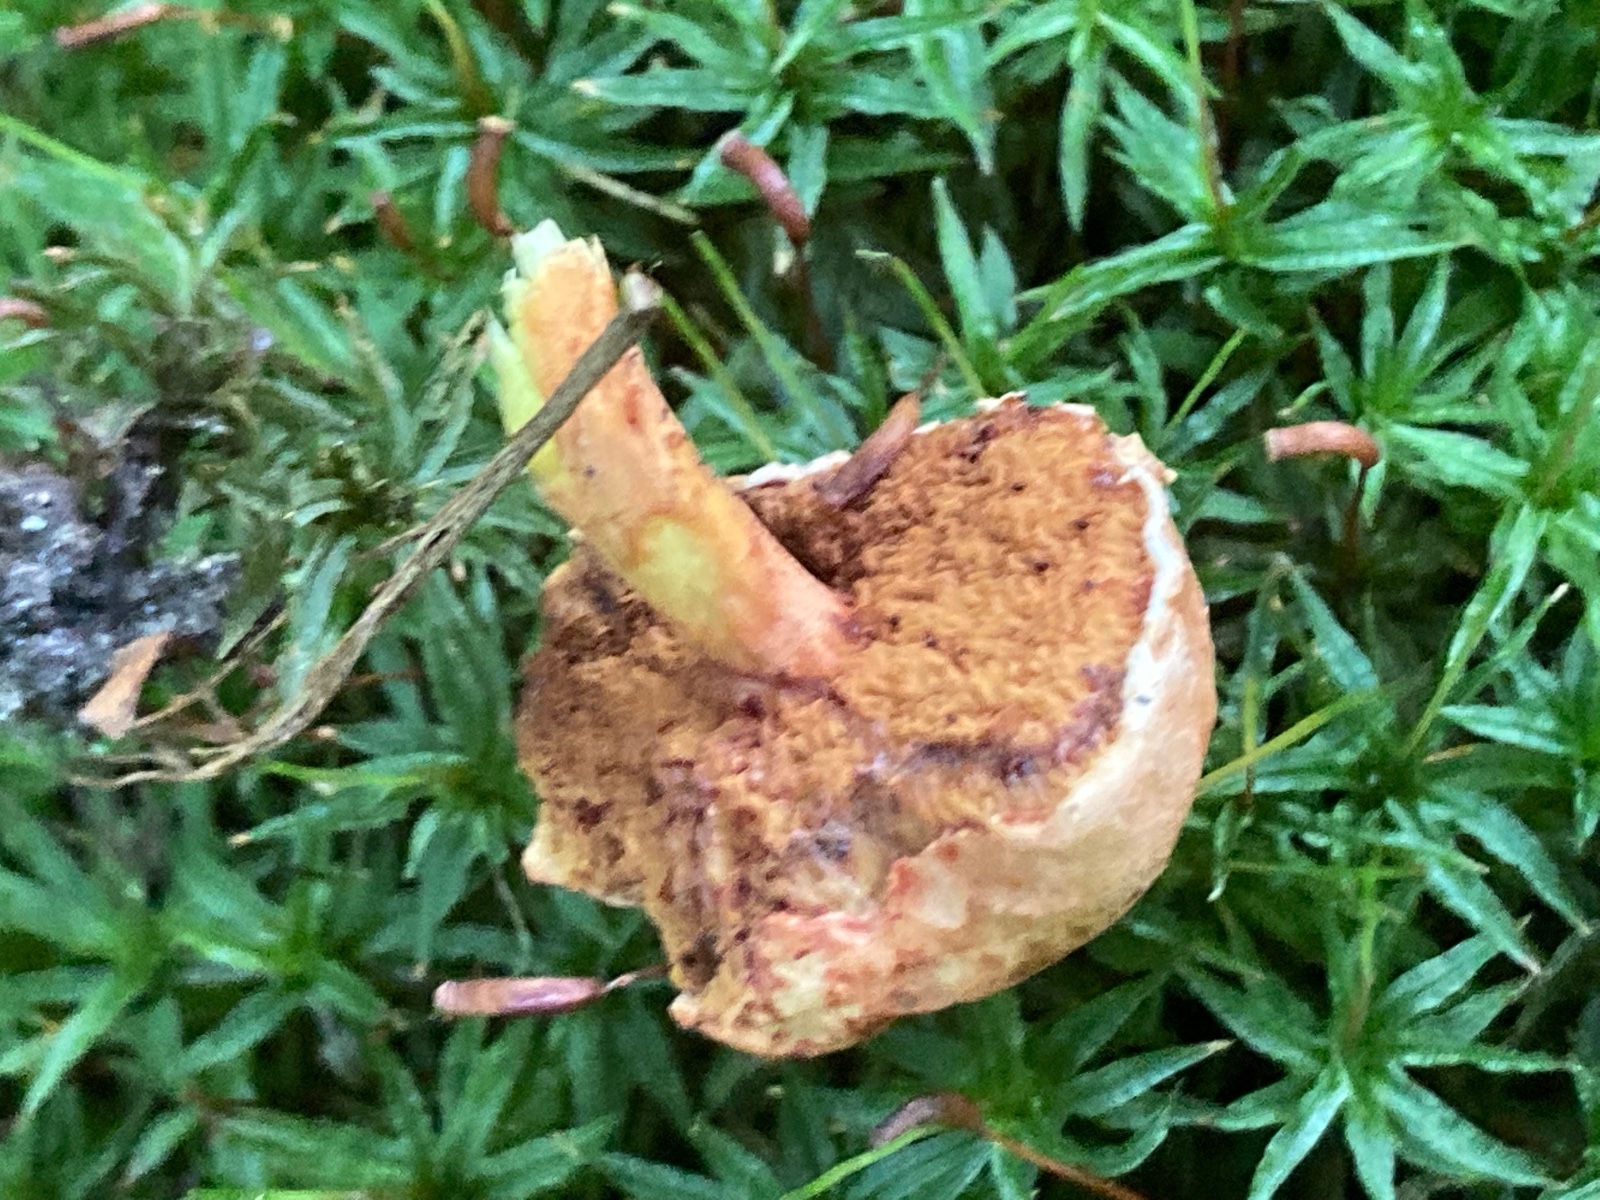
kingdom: Fungi
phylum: Basidiomycota
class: Agaricomycetes
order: Boletales
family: Boletaceae
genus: Chalciporus
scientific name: Chalciporus piperatus
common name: peberrørhat
